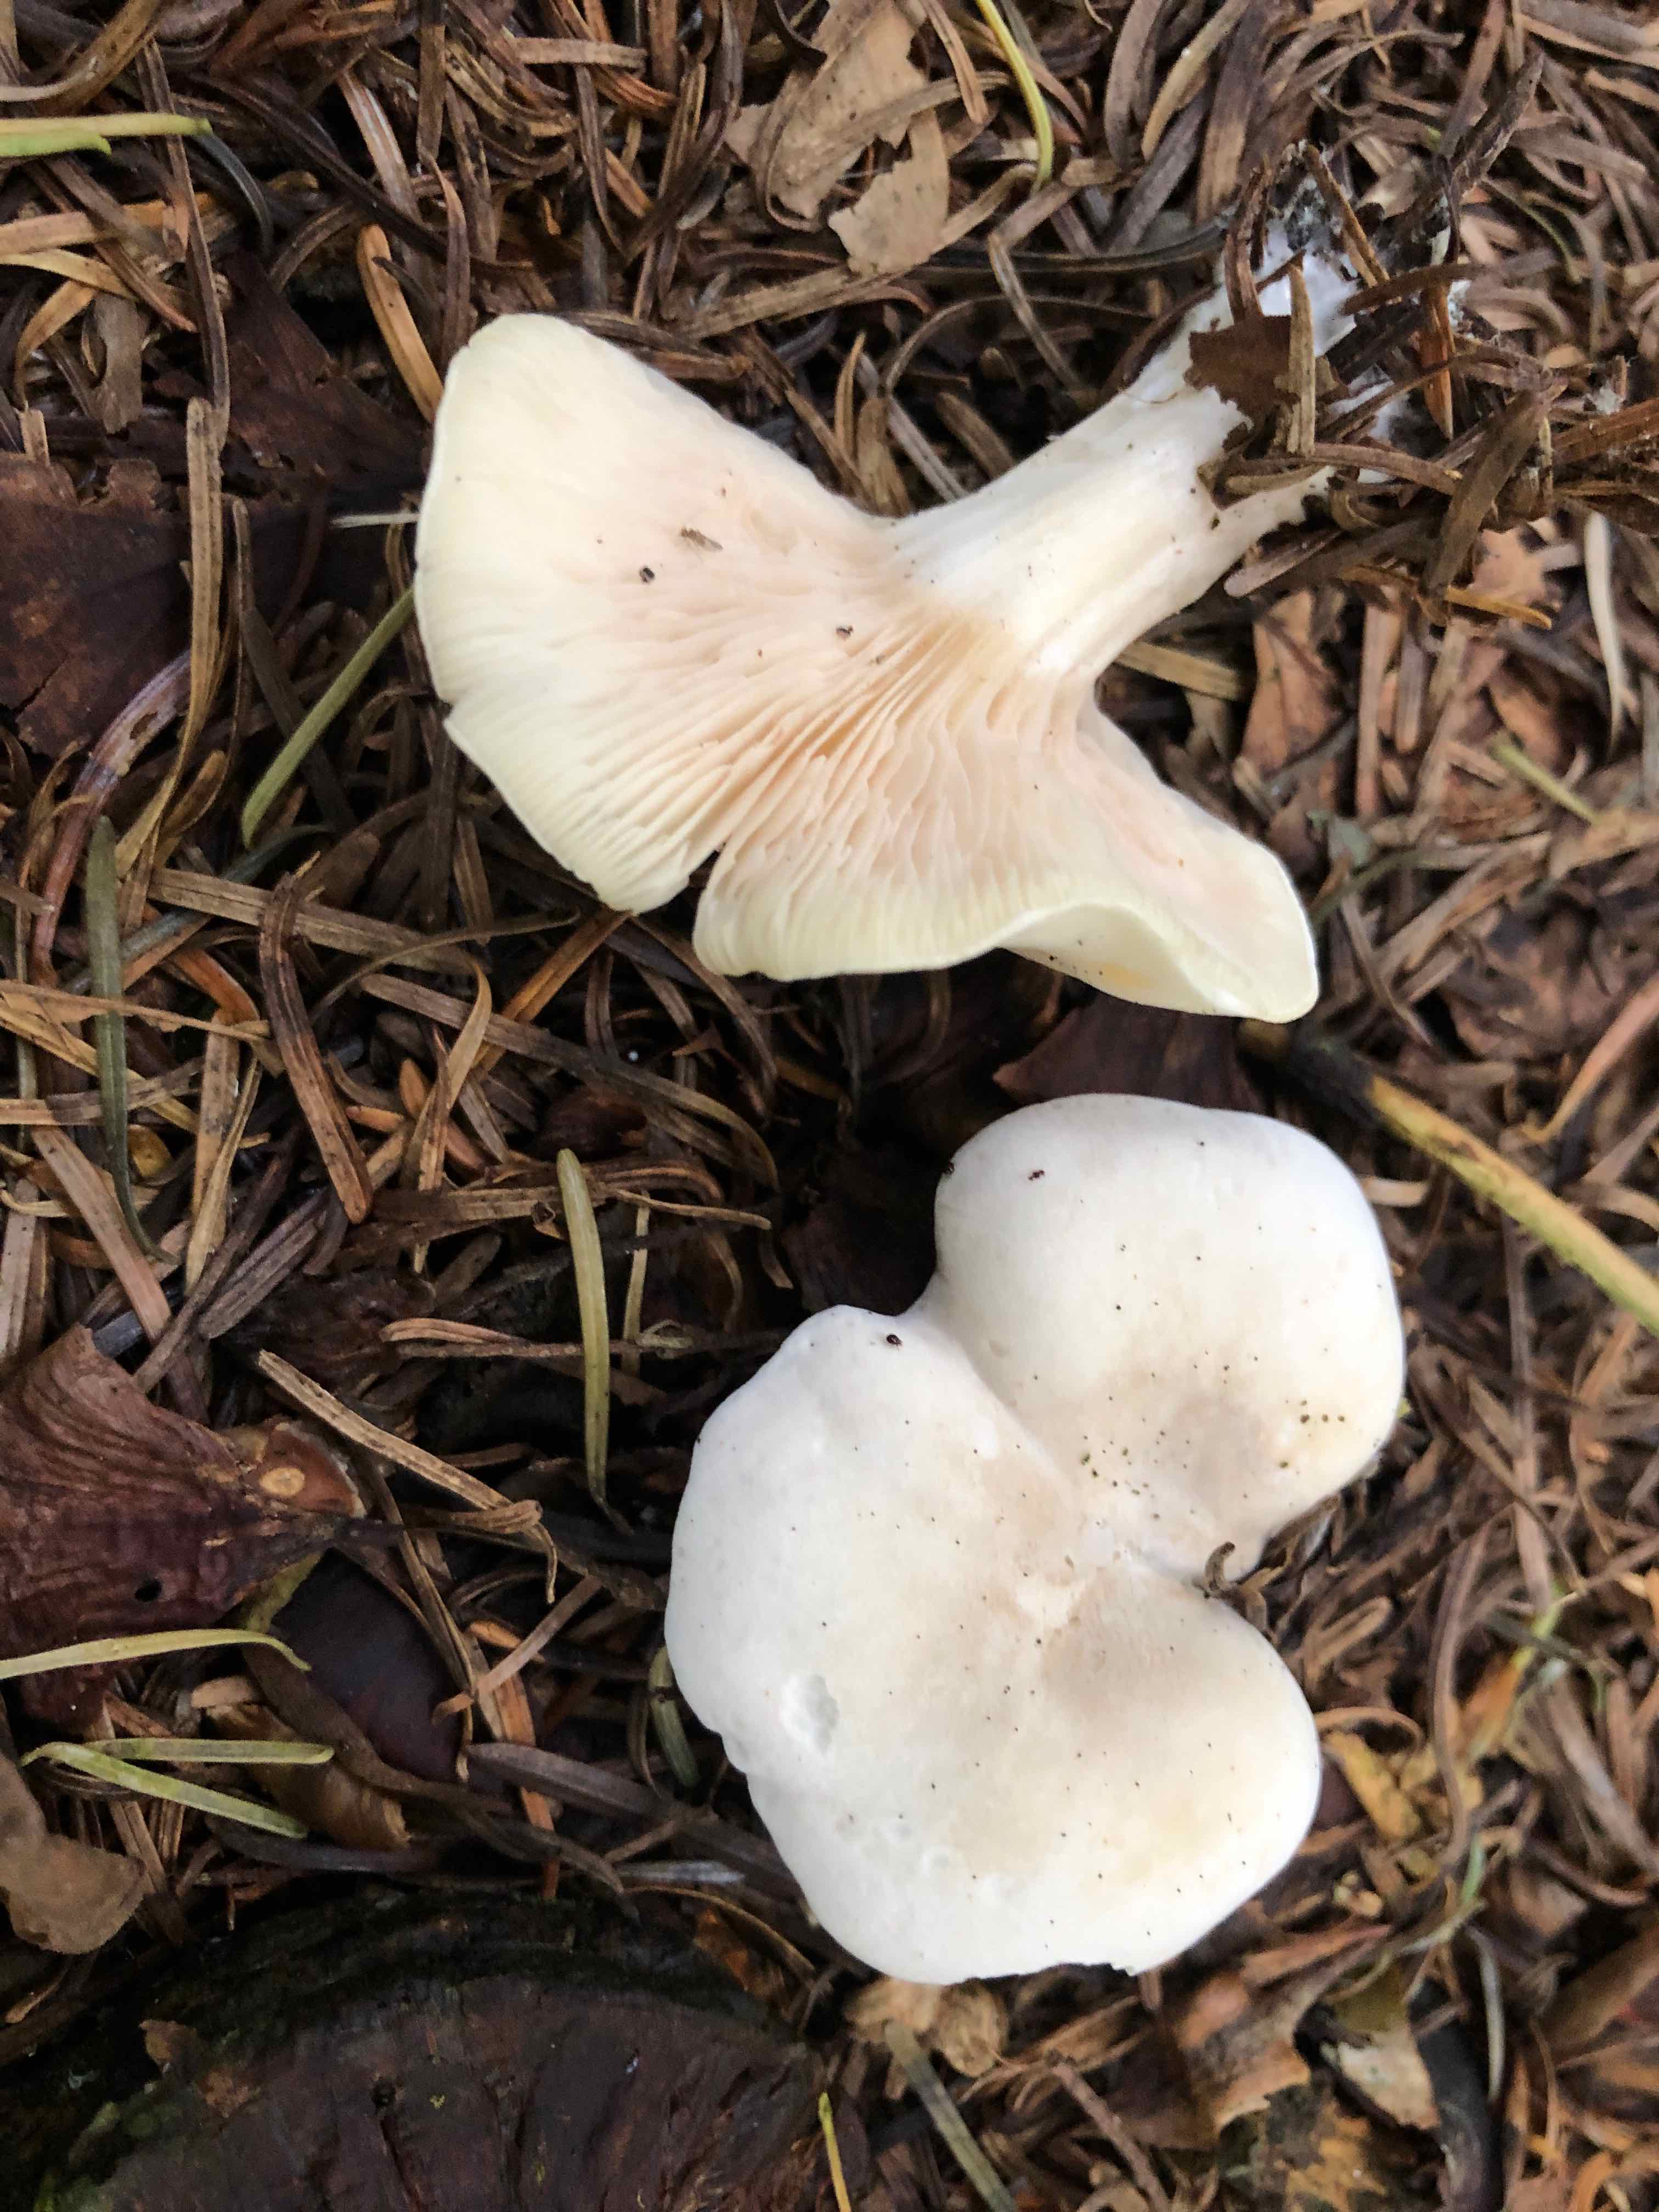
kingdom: Fungi
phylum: Basidiomycota
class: Agaricomycetes
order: Agaricales
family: Entolomataceae
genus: Clitopilus
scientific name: Clitopilus prunulus
